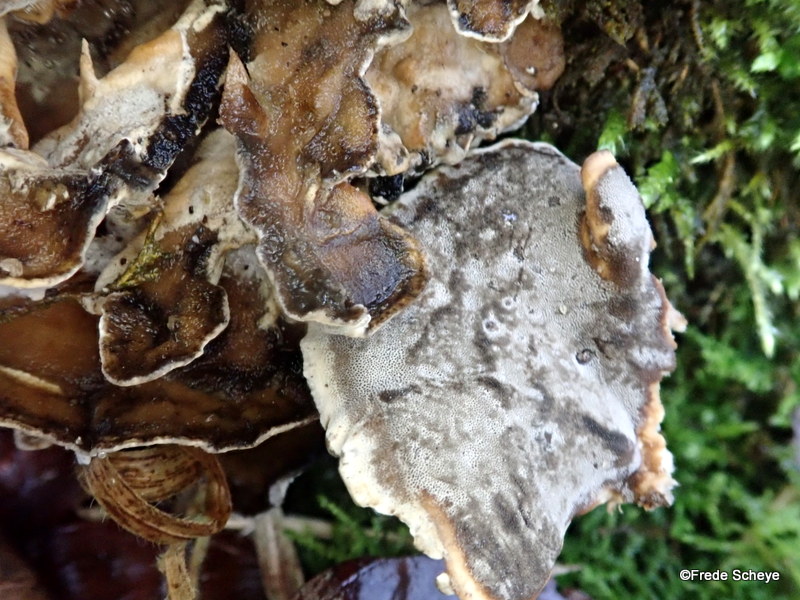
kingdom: Fungi
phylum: Basidiomycota
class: Agaricomycetes
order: Polyporales
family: Phanerochaetaceae
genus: Bjerkandera
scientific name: Bjerkandera adusta
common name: sveden sodporesvamp
